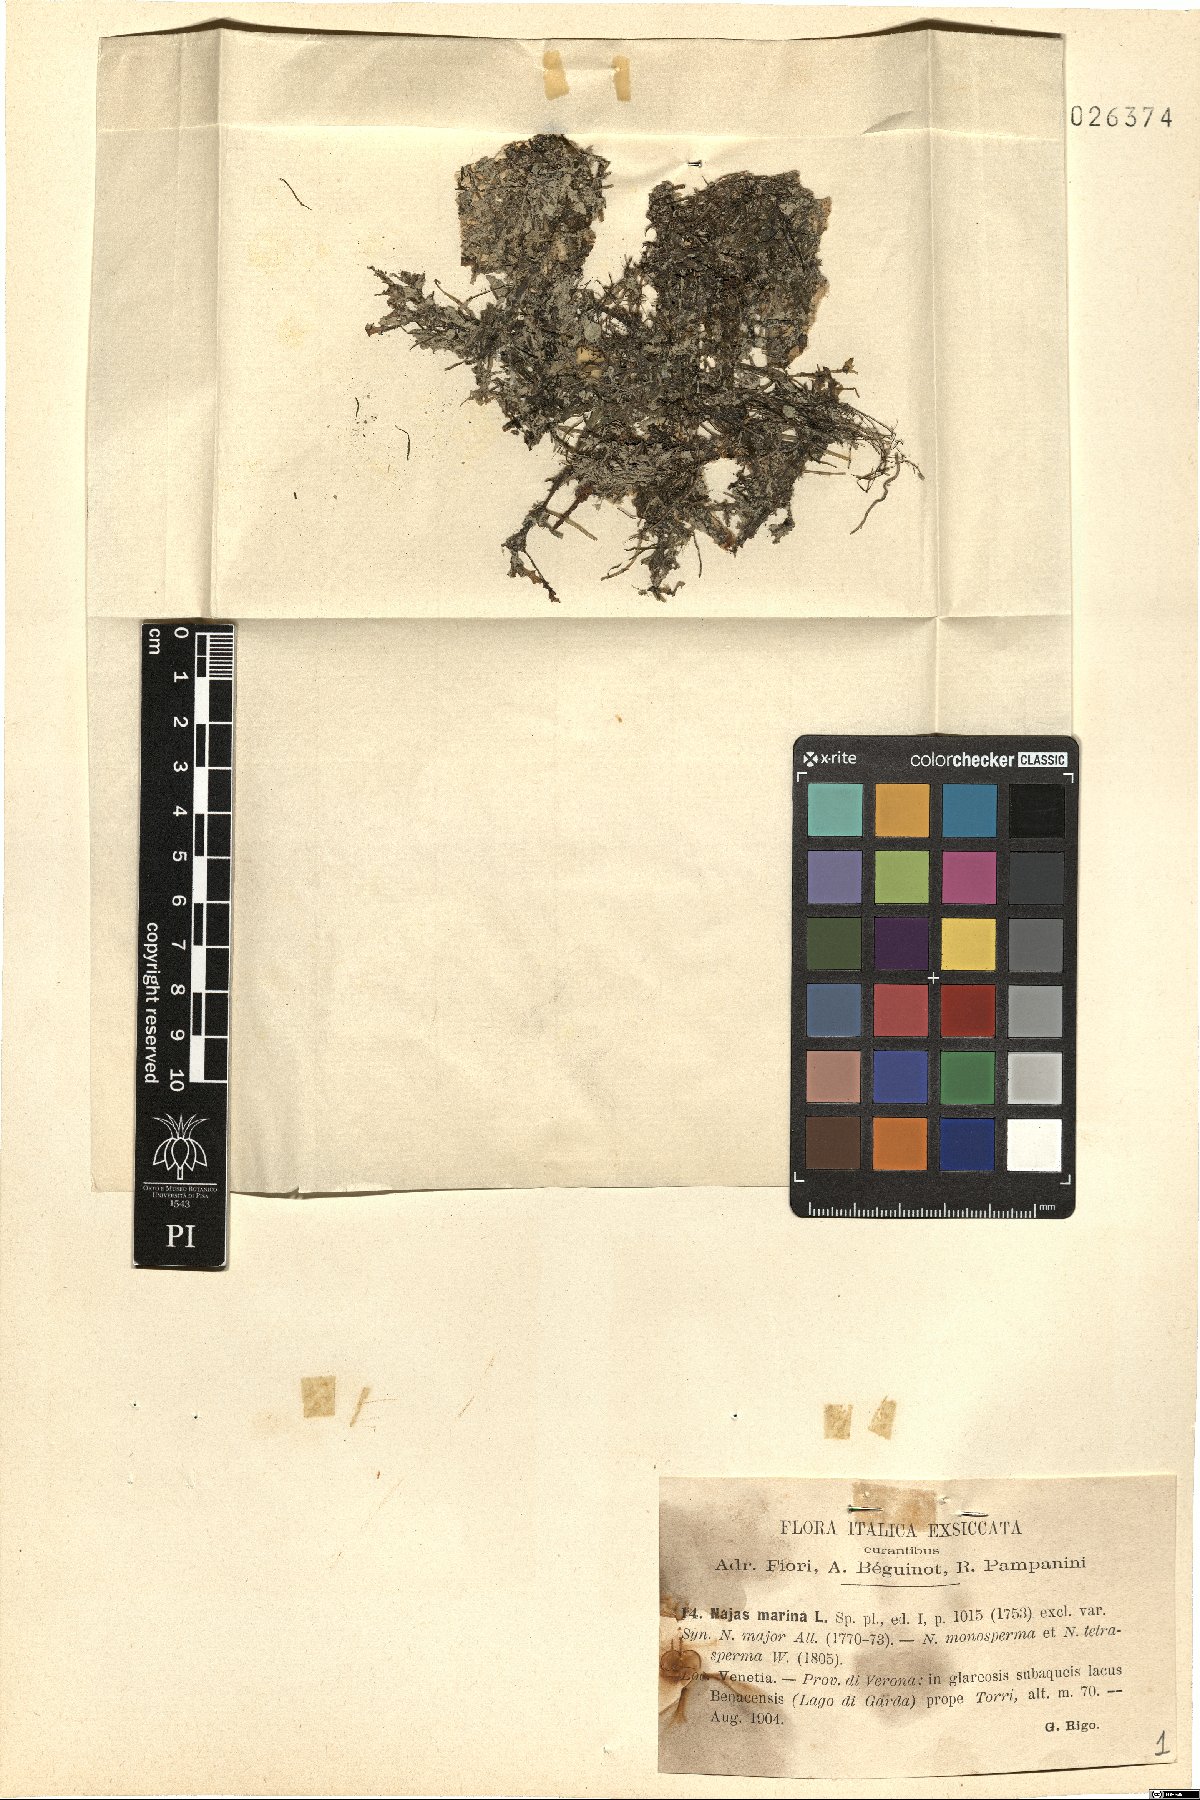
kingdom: Plantae
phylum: Tracheophyta
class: Liliopsida
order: Alismatales
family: Hydrocharitaceae
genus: Najas
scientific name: Najas marina
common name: Holly-leaved naiad
